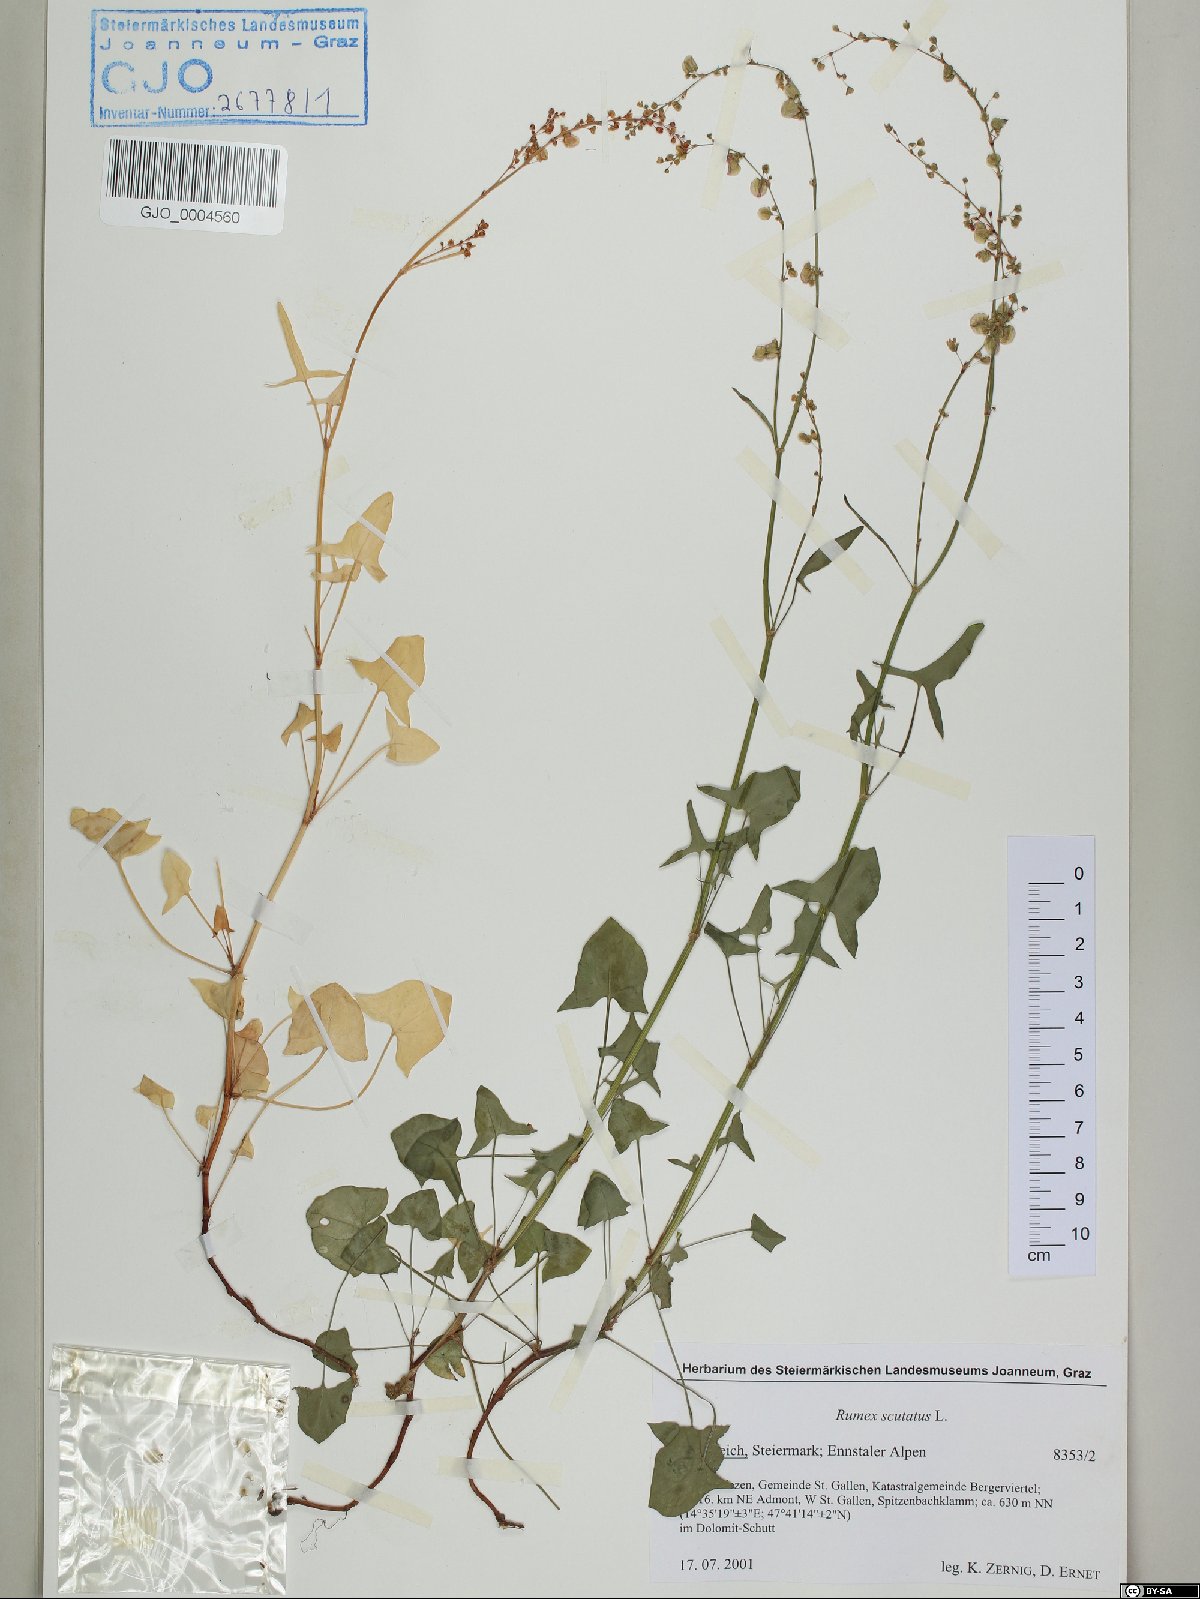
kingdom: Plantae
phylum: Tracheophyta
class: Magnoliopsida
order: Caryophyllales
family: Polygonaceae
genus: Rumex
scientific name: Rumex scutatus
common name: French sorrel
